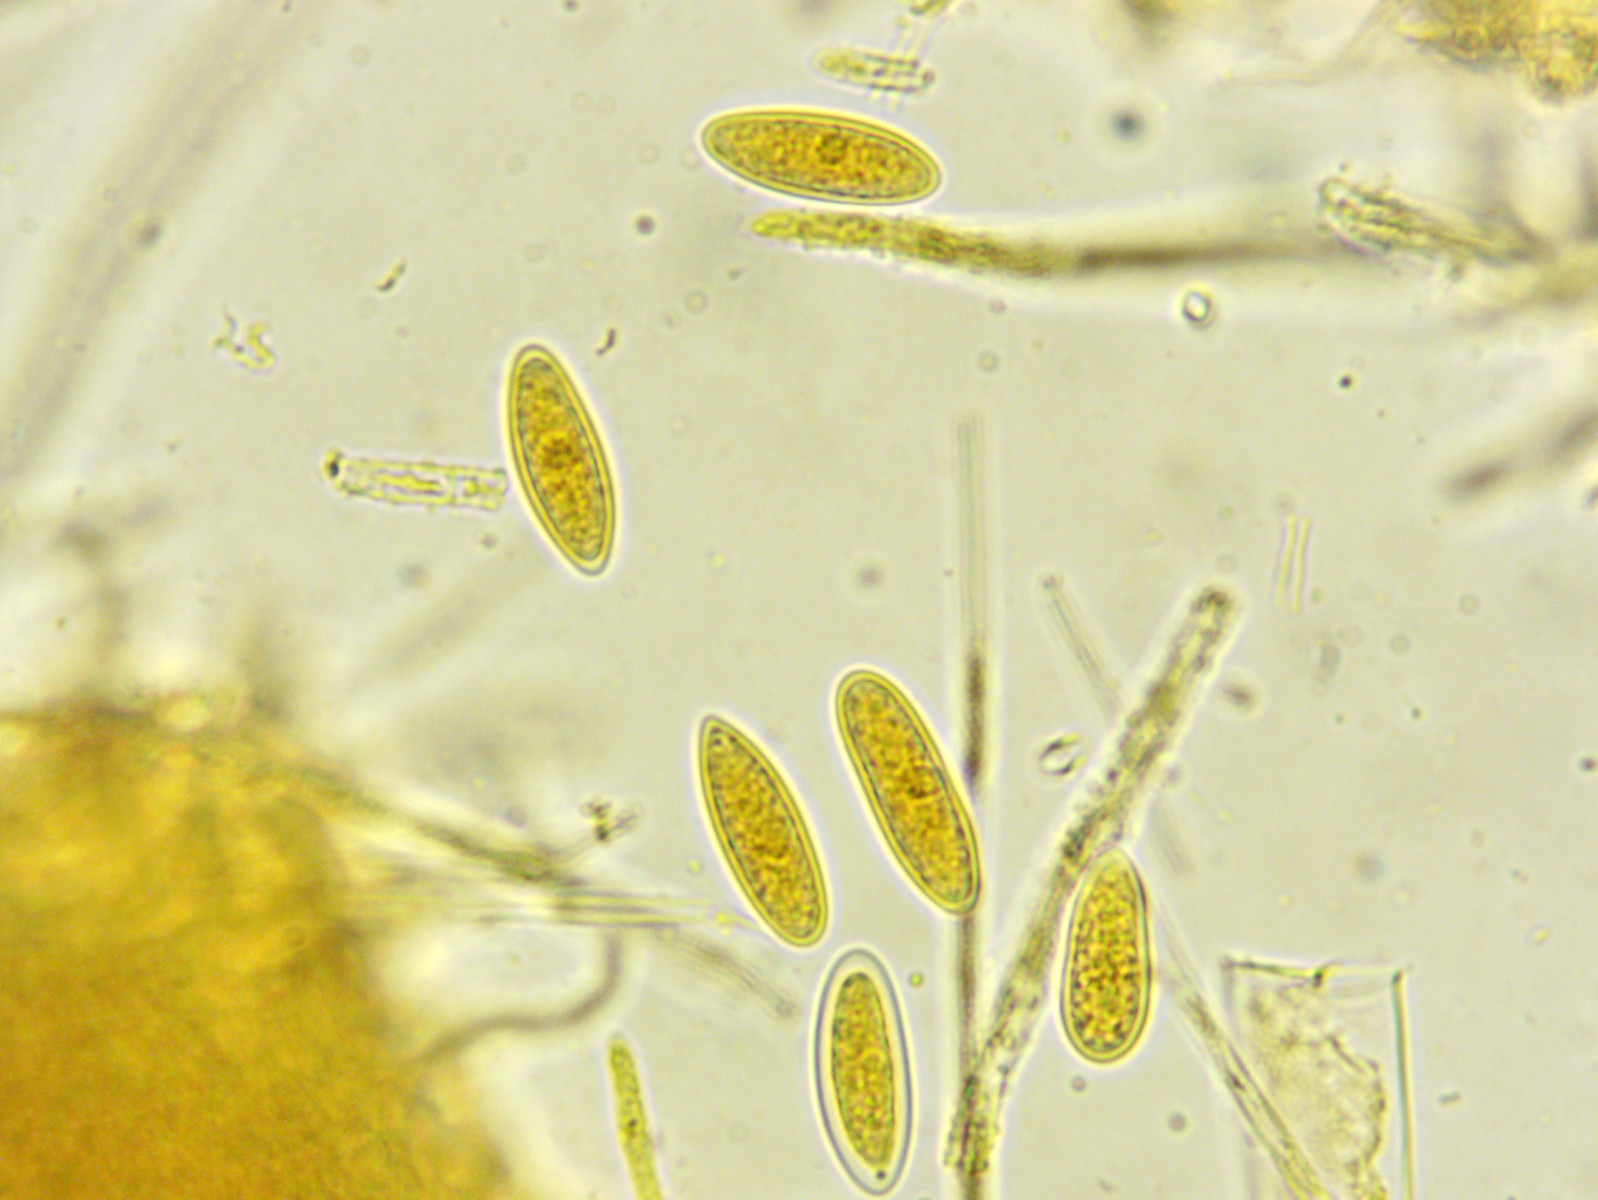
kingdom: Fungi
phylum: Ascomycota
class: Leotiomycetes
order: Helotiales
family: Lachnaceae
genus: Lachnellula
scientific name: Lachnellula occidentalis
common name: Larch disco
